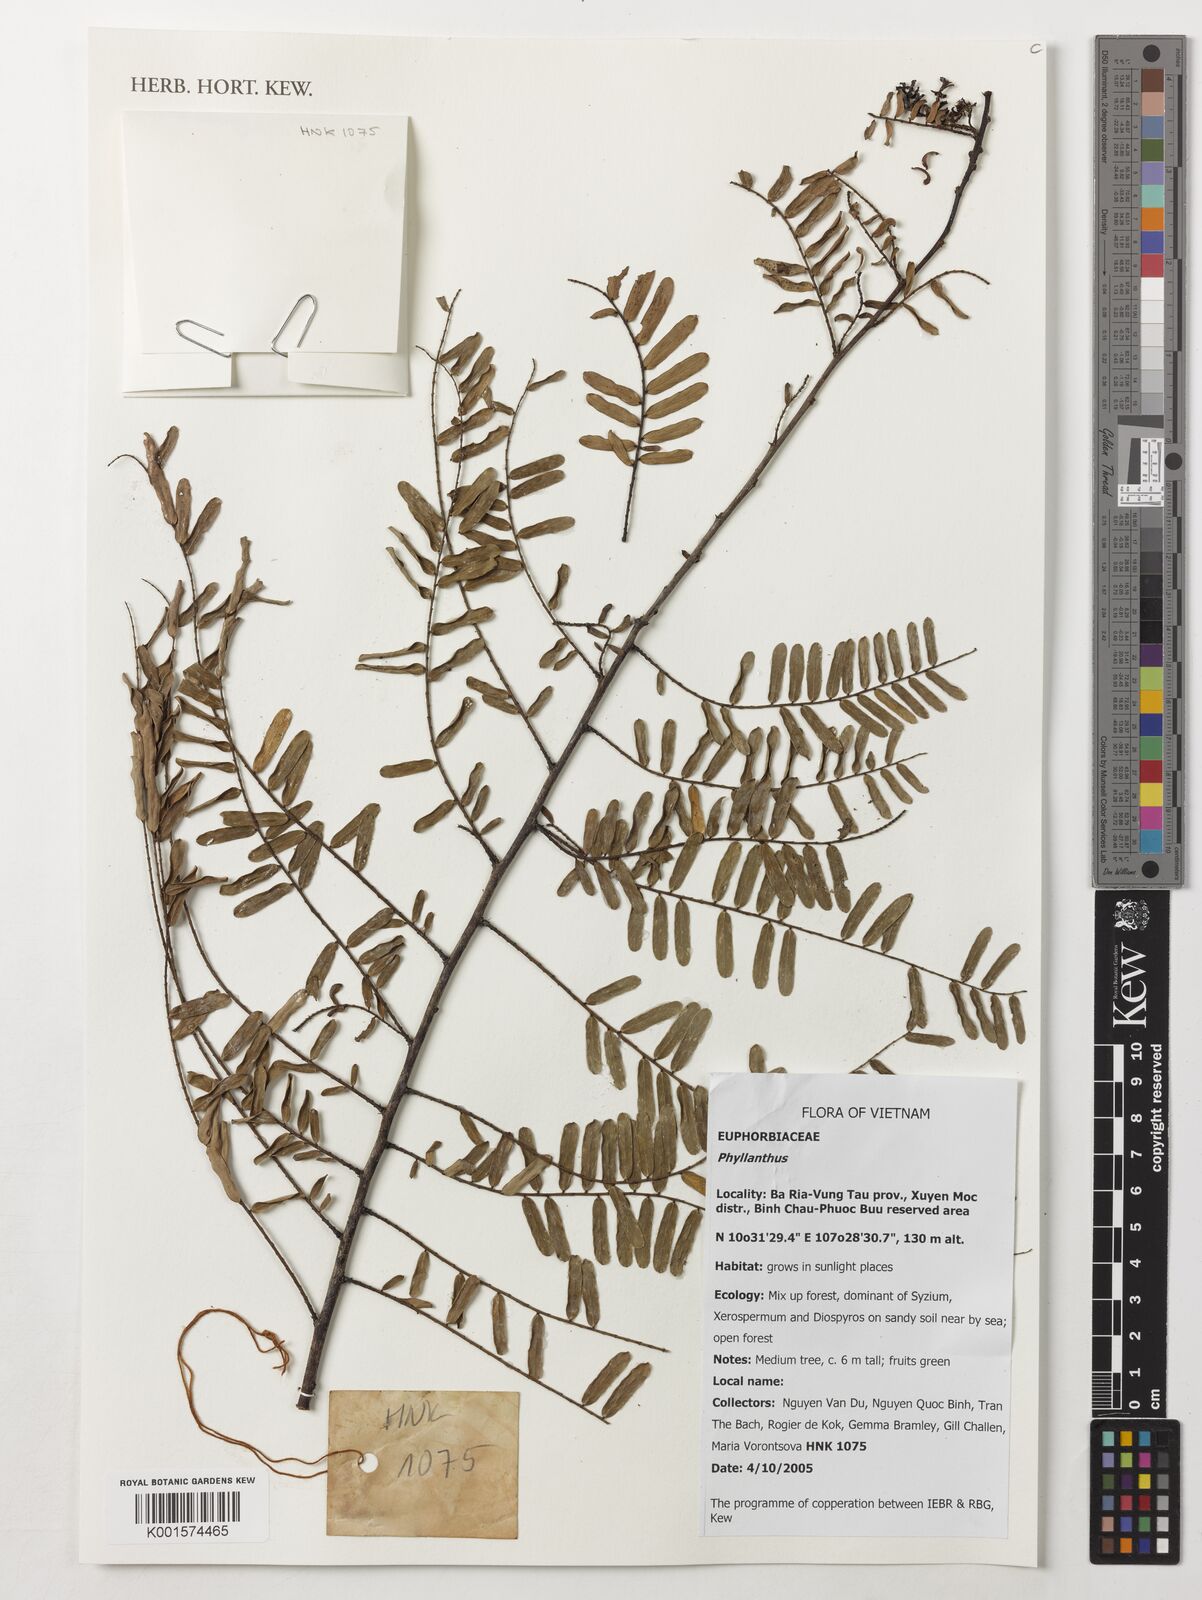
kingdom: Plantae
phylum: Tracheophyta
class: Magnoliopsida
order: Malpighiales
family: Phyllanthaceae
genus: Phyllanthus
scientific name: Phyllanthus
